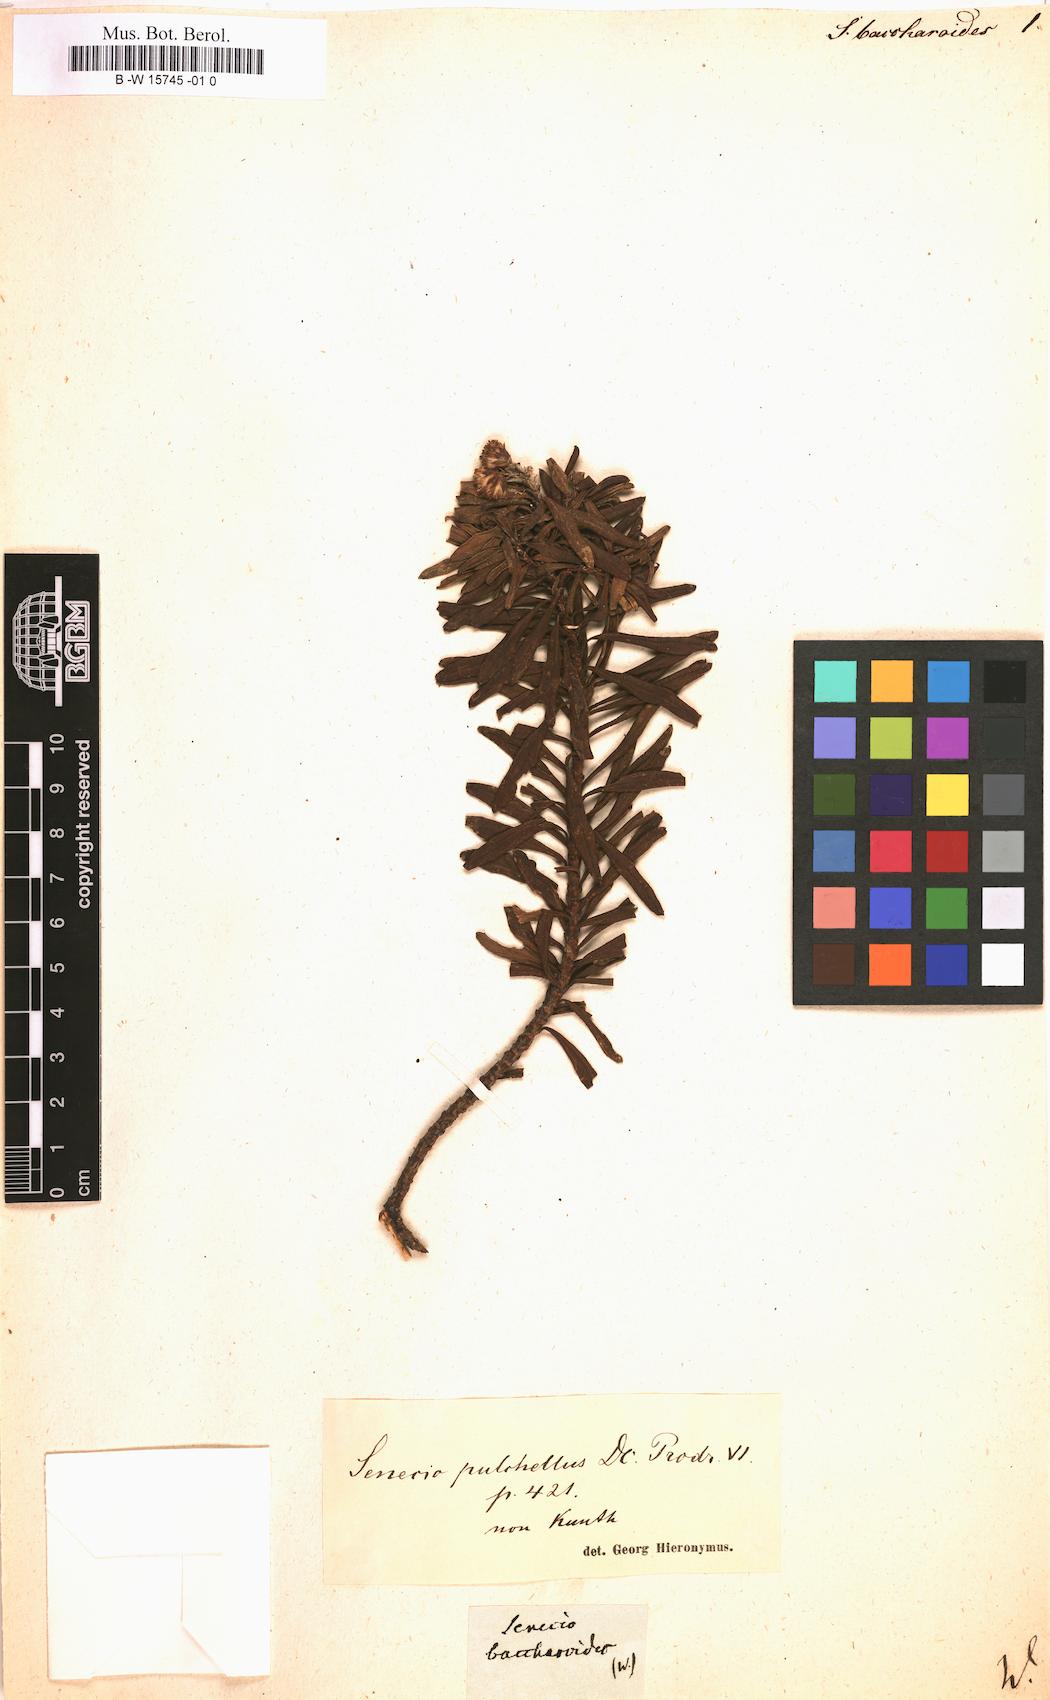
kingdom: Plantae
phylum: Tracheophyta
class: Magnoliopsida
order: Asterales
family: Asteraceae
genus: Gynoxys
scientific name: Gynoxys baccharoides
